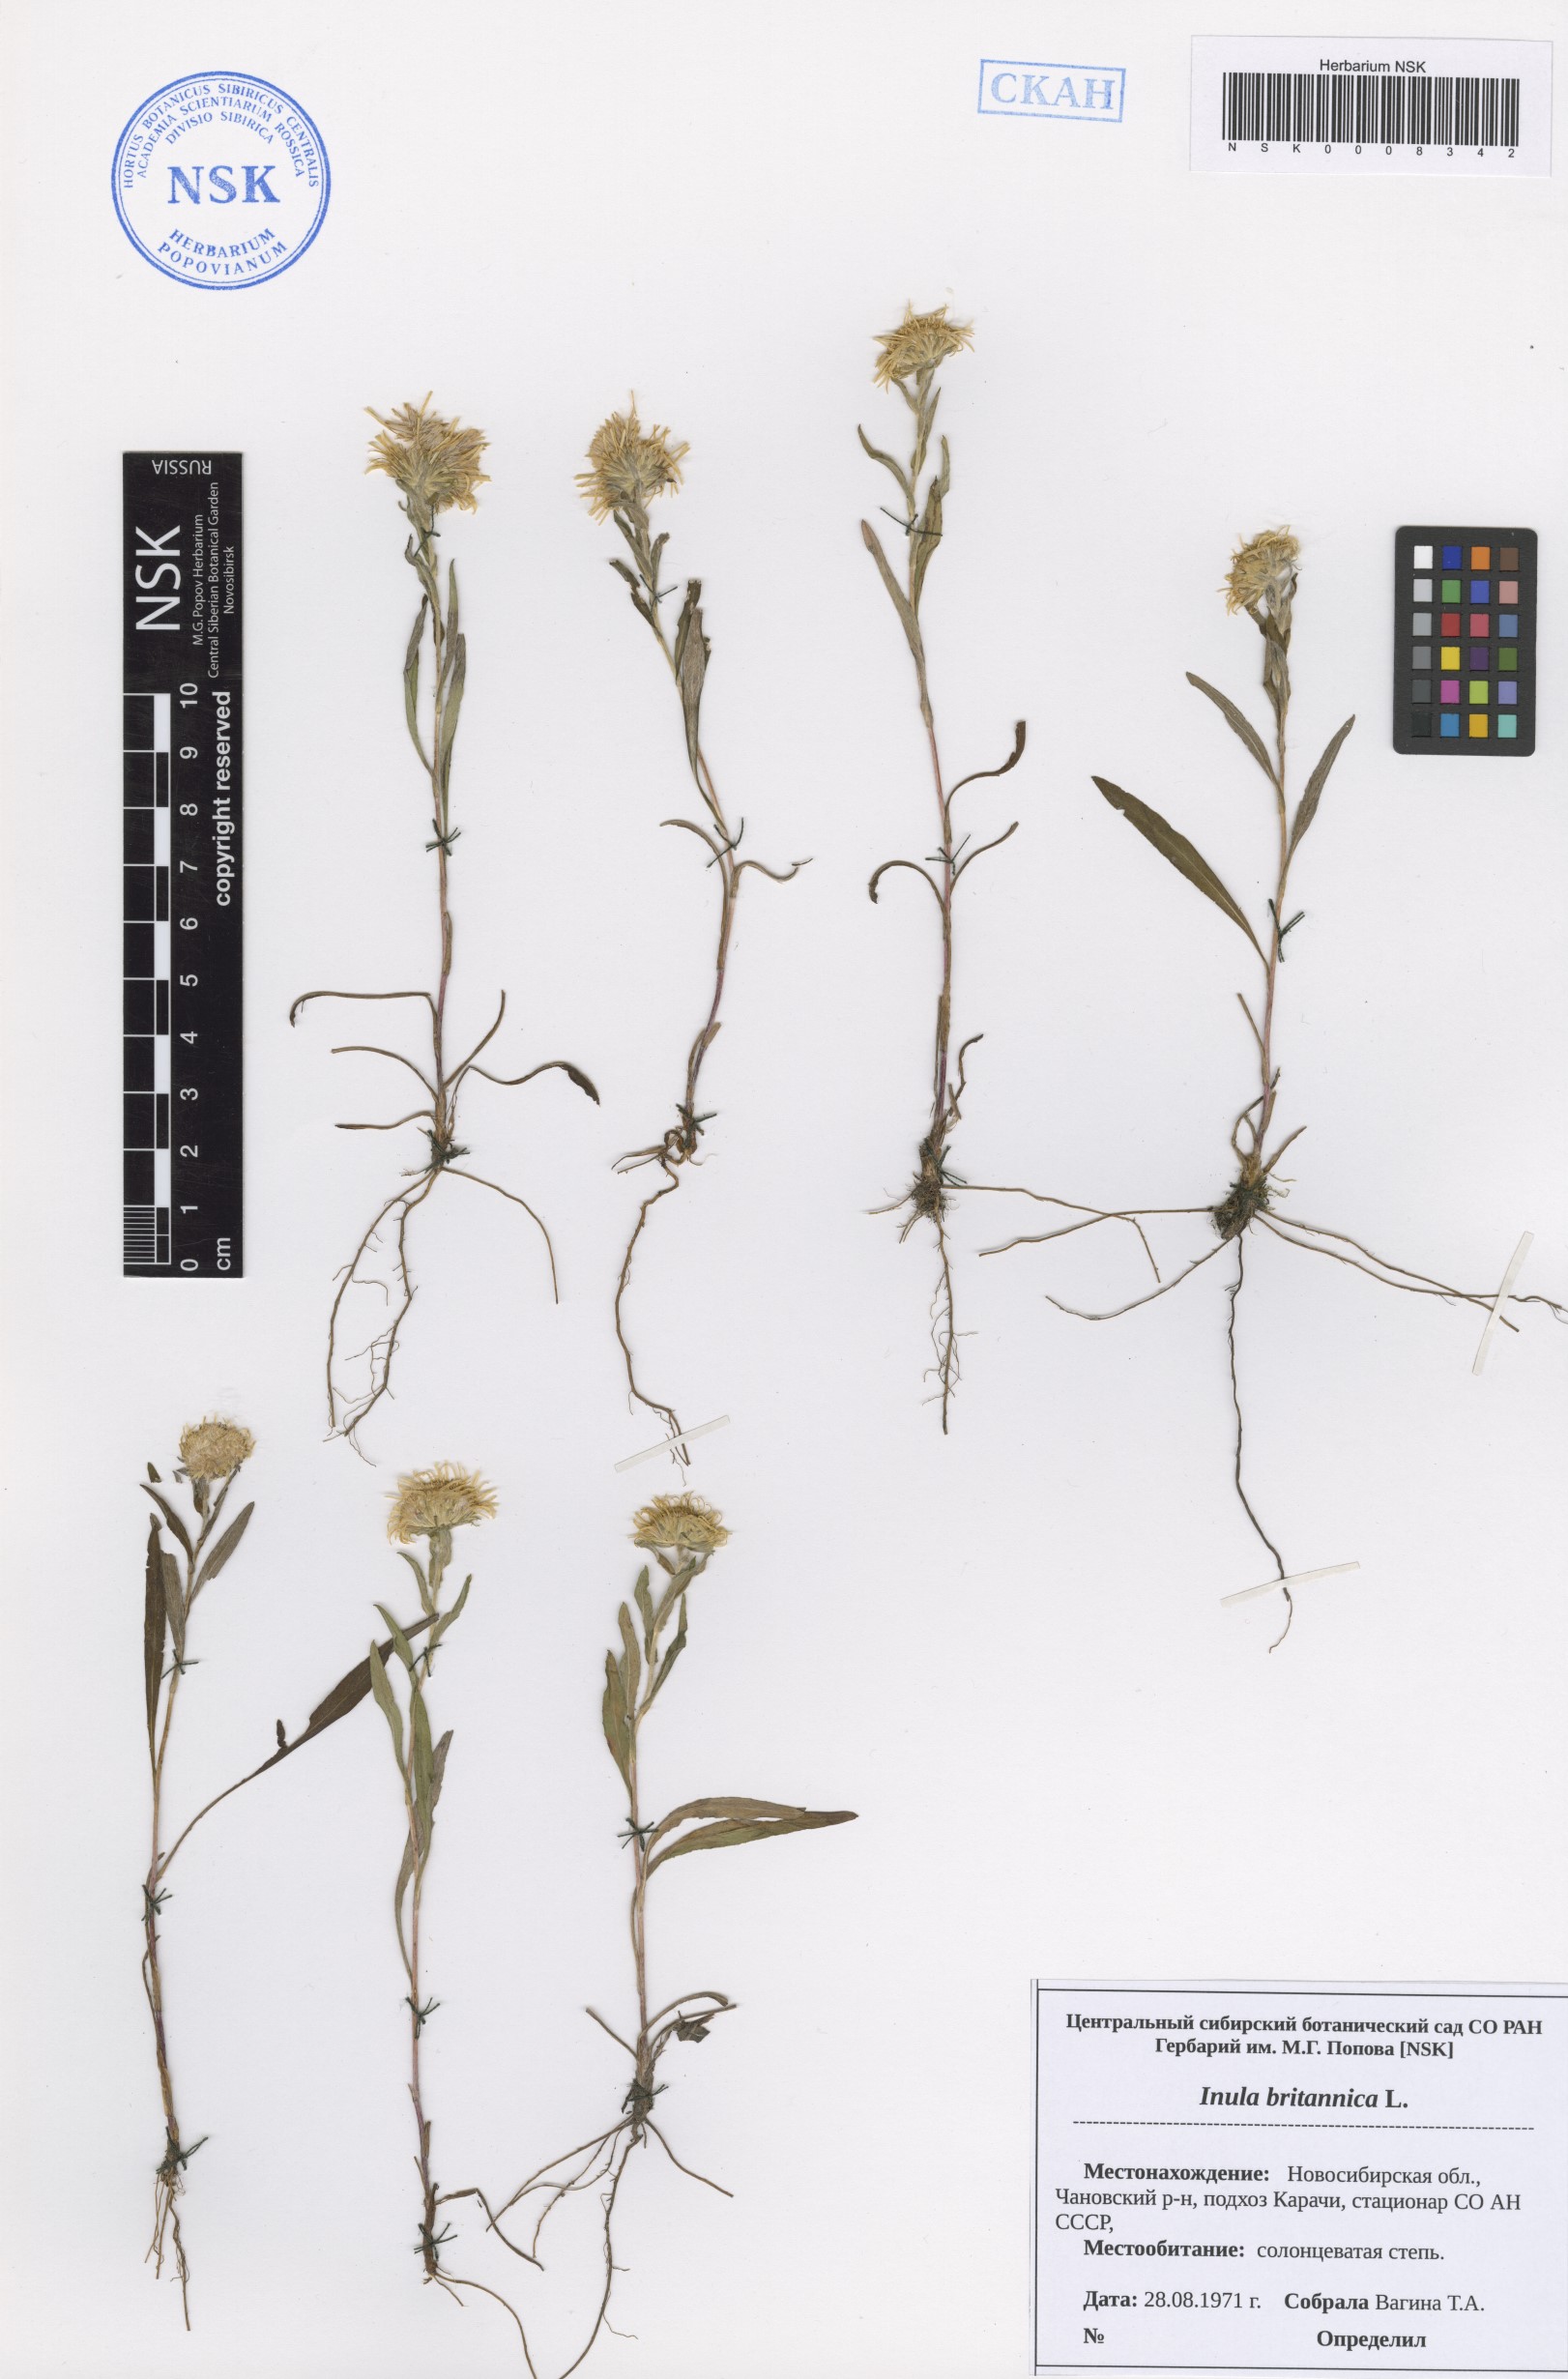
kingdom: Plantae
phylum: Tracheophyta
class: Magnoliopsida
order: Asterales
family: Asteraceae
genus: Pentanema
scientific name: Pentanema britannicum
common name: British elecampane
